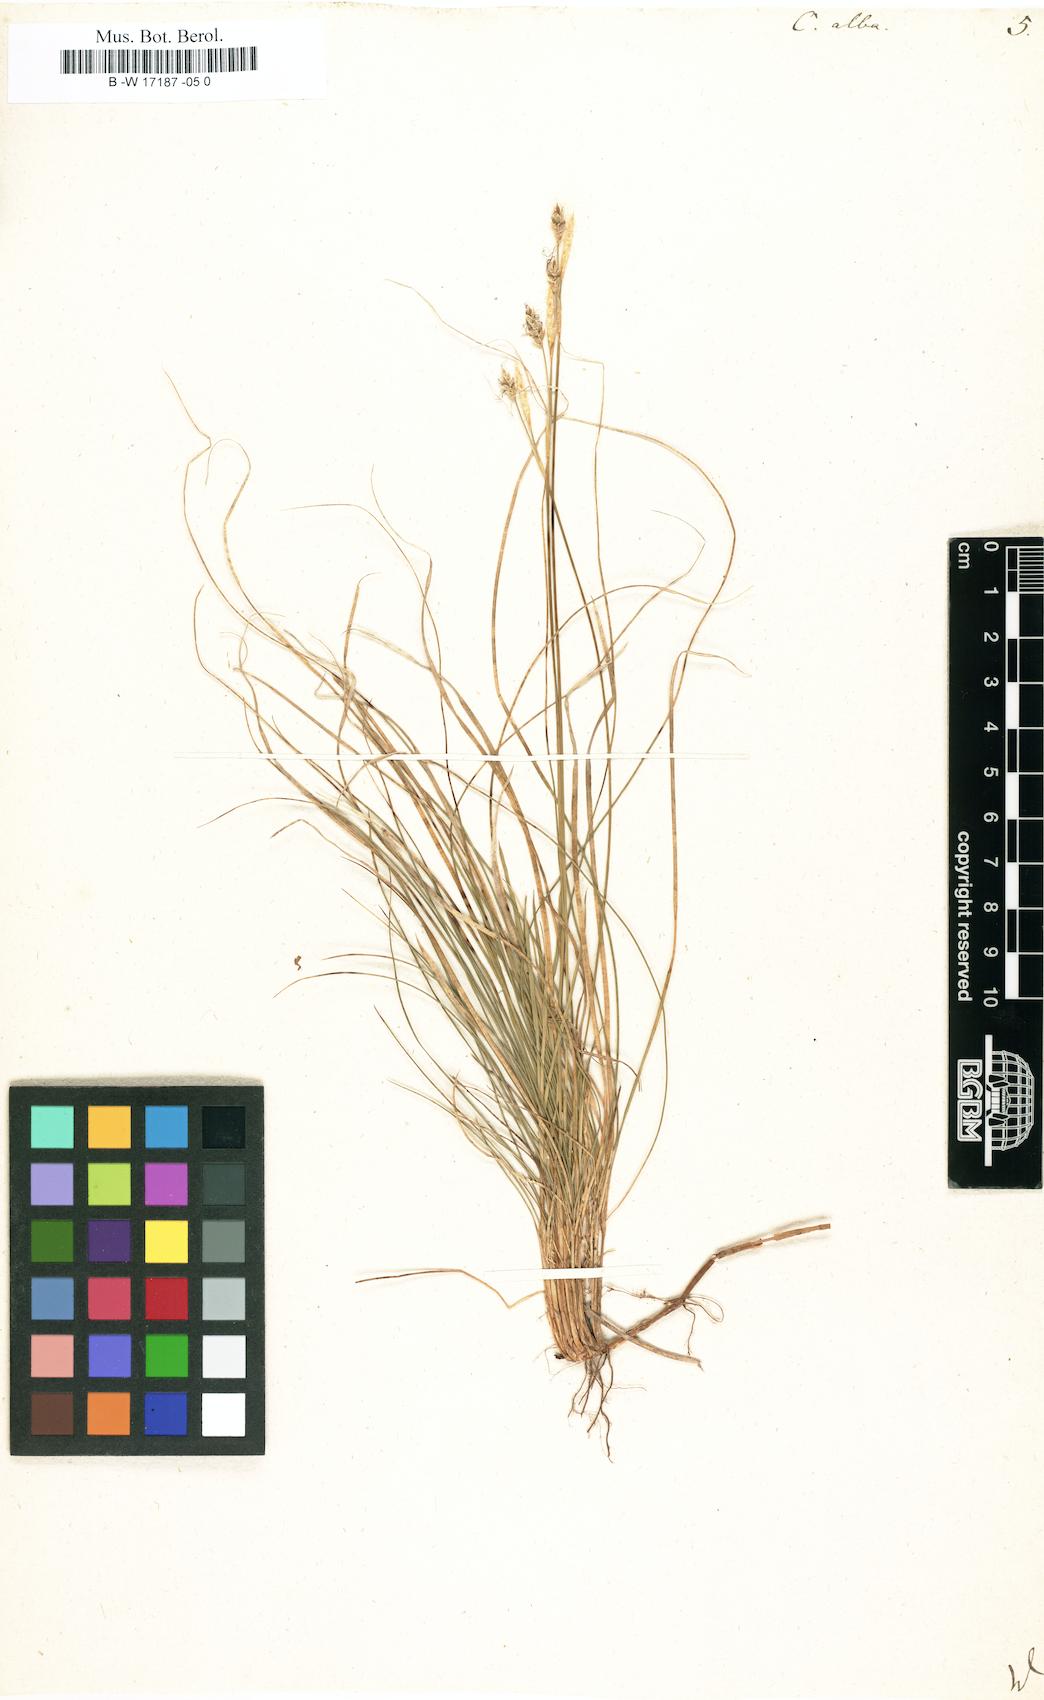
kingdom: Plantae
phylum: Tracheophyta
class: Liliopsida
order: Poales
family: Cyperaceae
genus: Carex
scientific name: Carex alba
